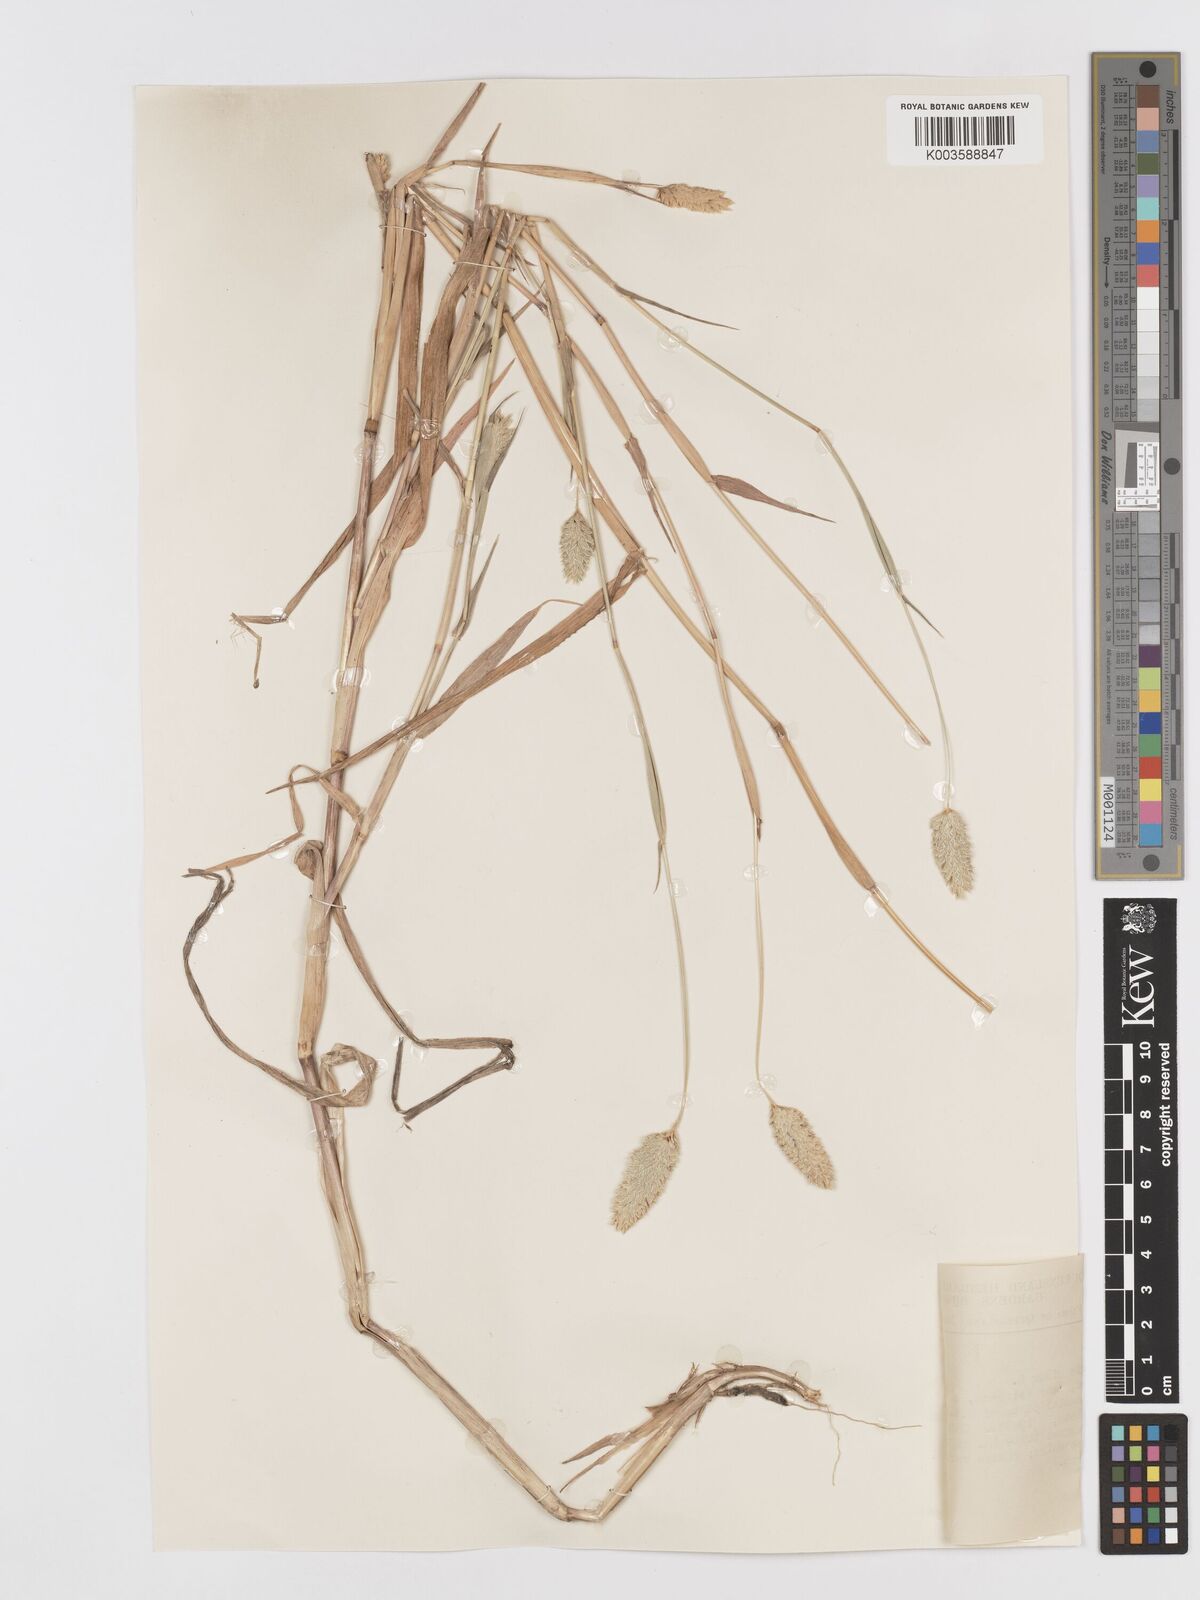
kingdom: Plantae
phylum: Tracheophyta
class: Liliopsida
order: Poales
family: Poaceae
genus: Phalaris
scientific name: Phalaris minor
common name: Littleseed canarygrass
